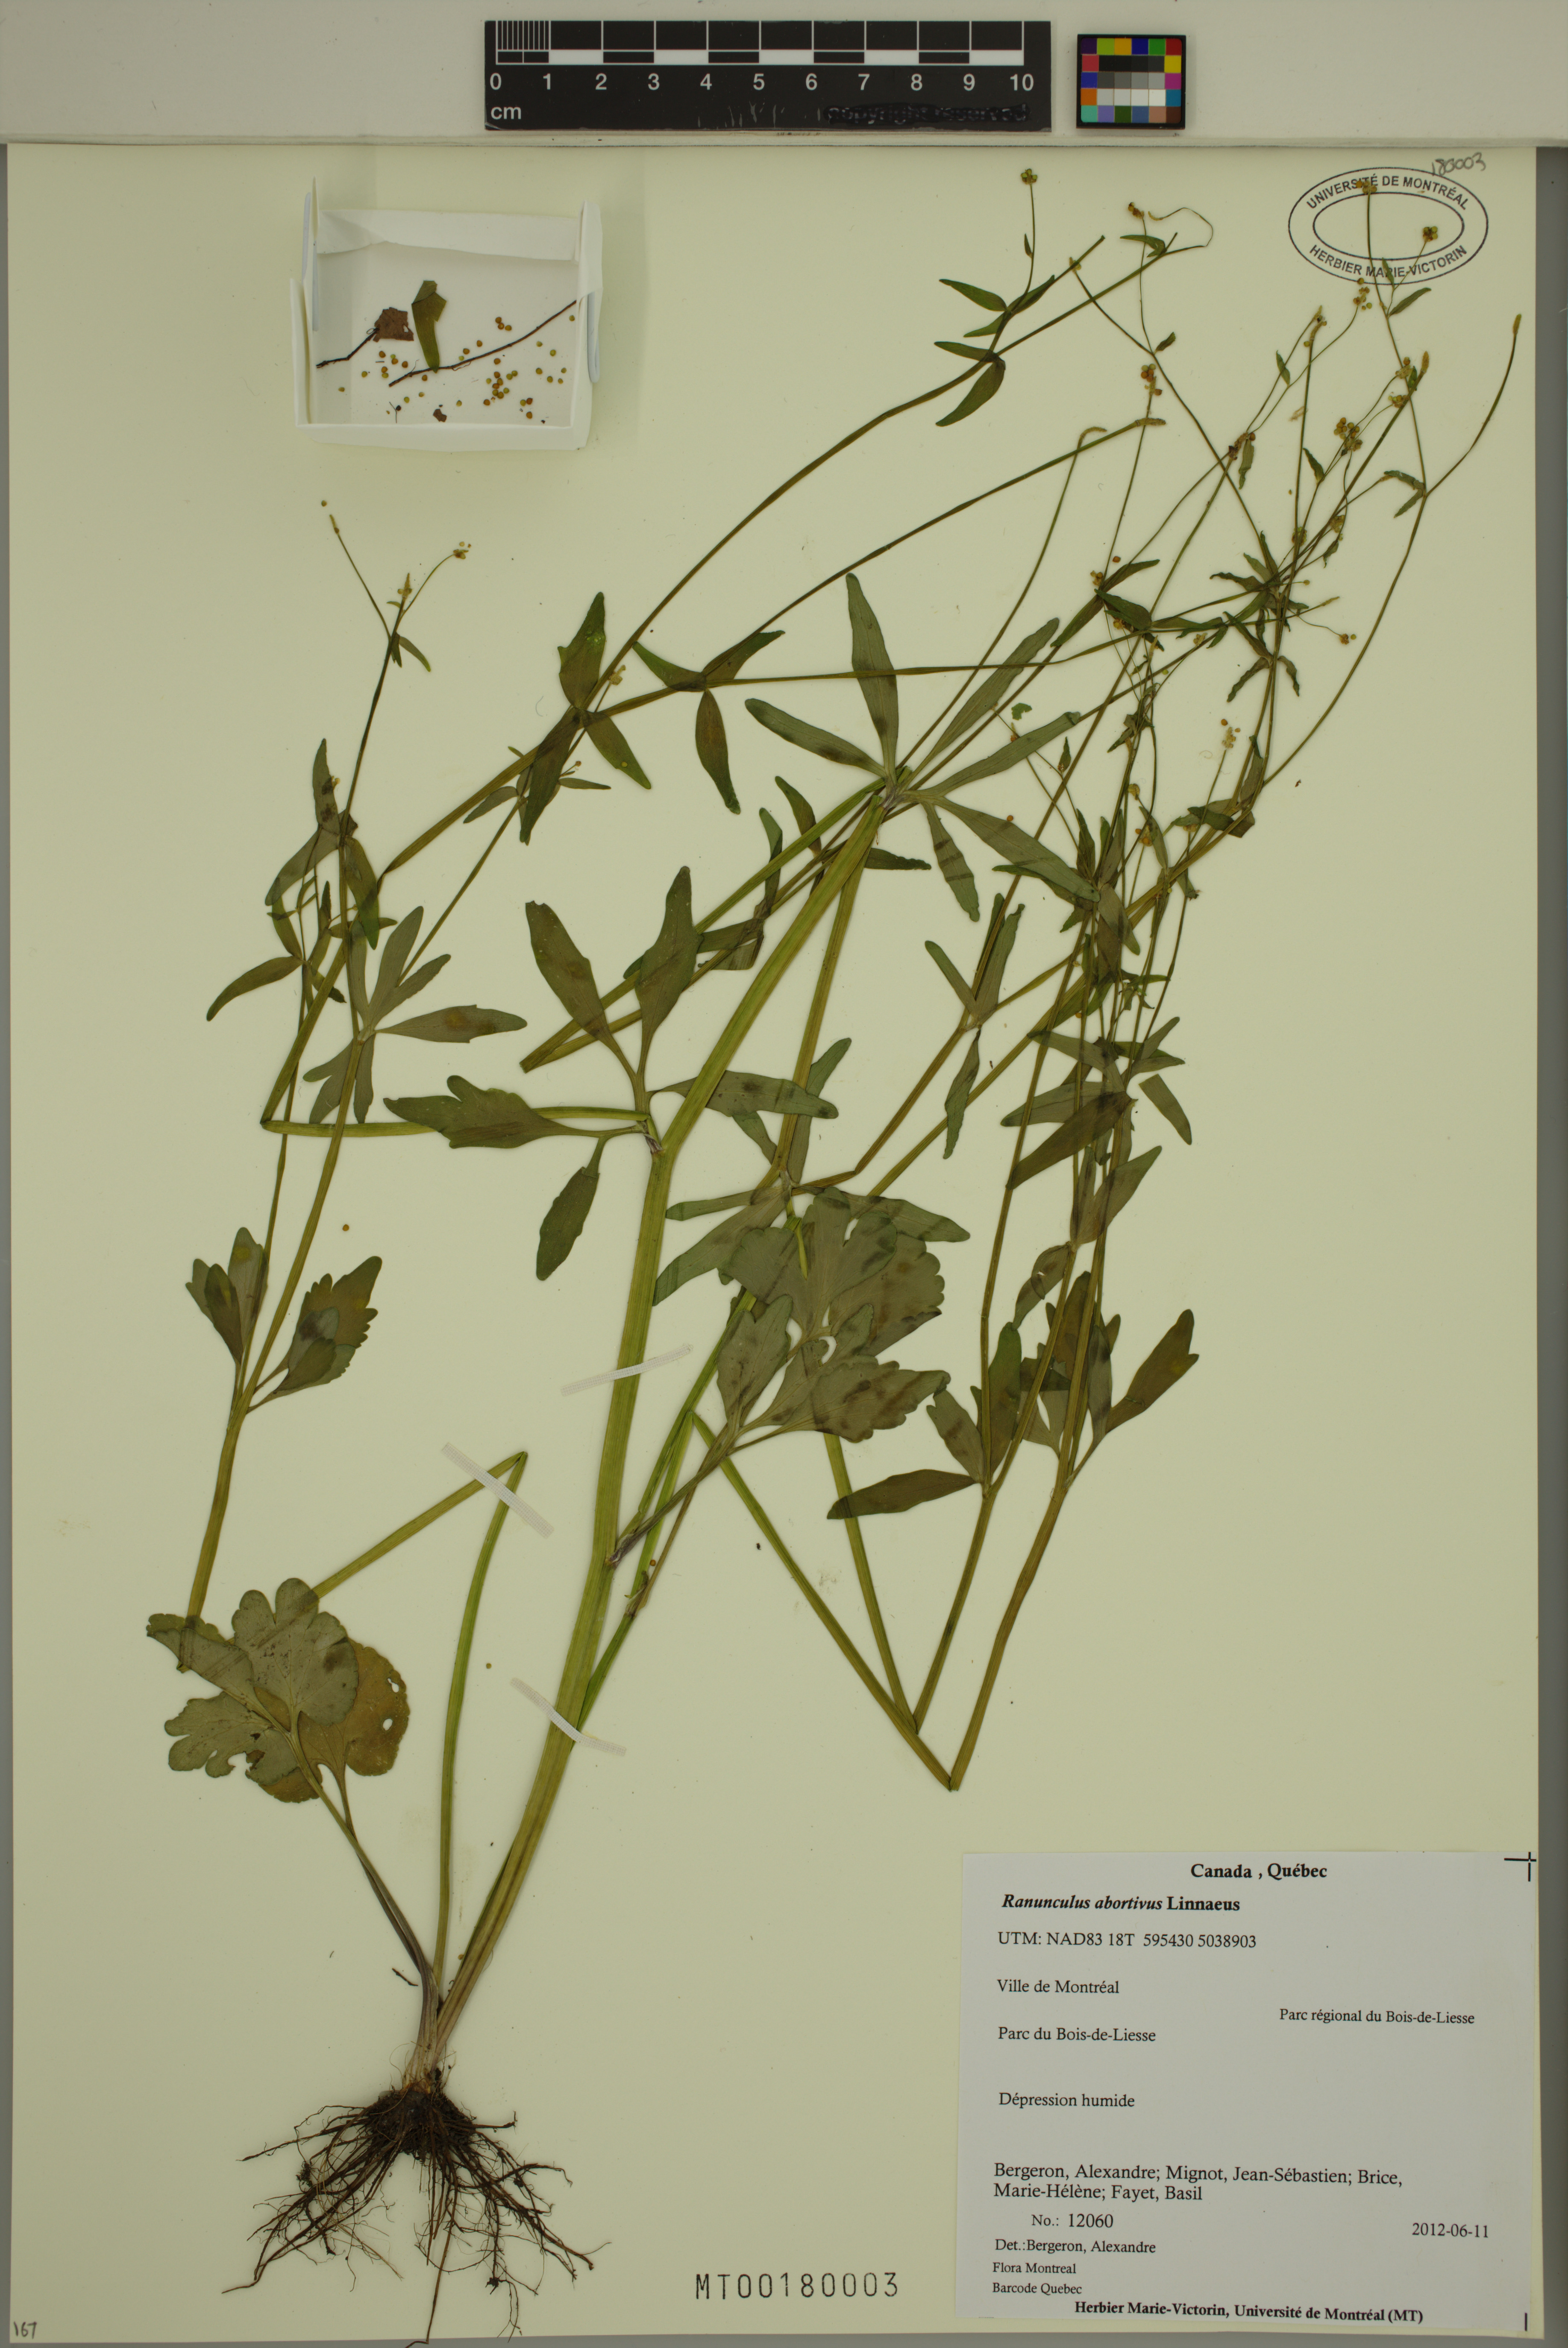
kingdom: Plantae
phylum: Tracheophyta
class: Magnoliopsida
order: Ranunculales
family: Ranunculaceae
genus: Ranunculus
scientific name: Ranunculus abortivus
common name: Early wood buttercup
